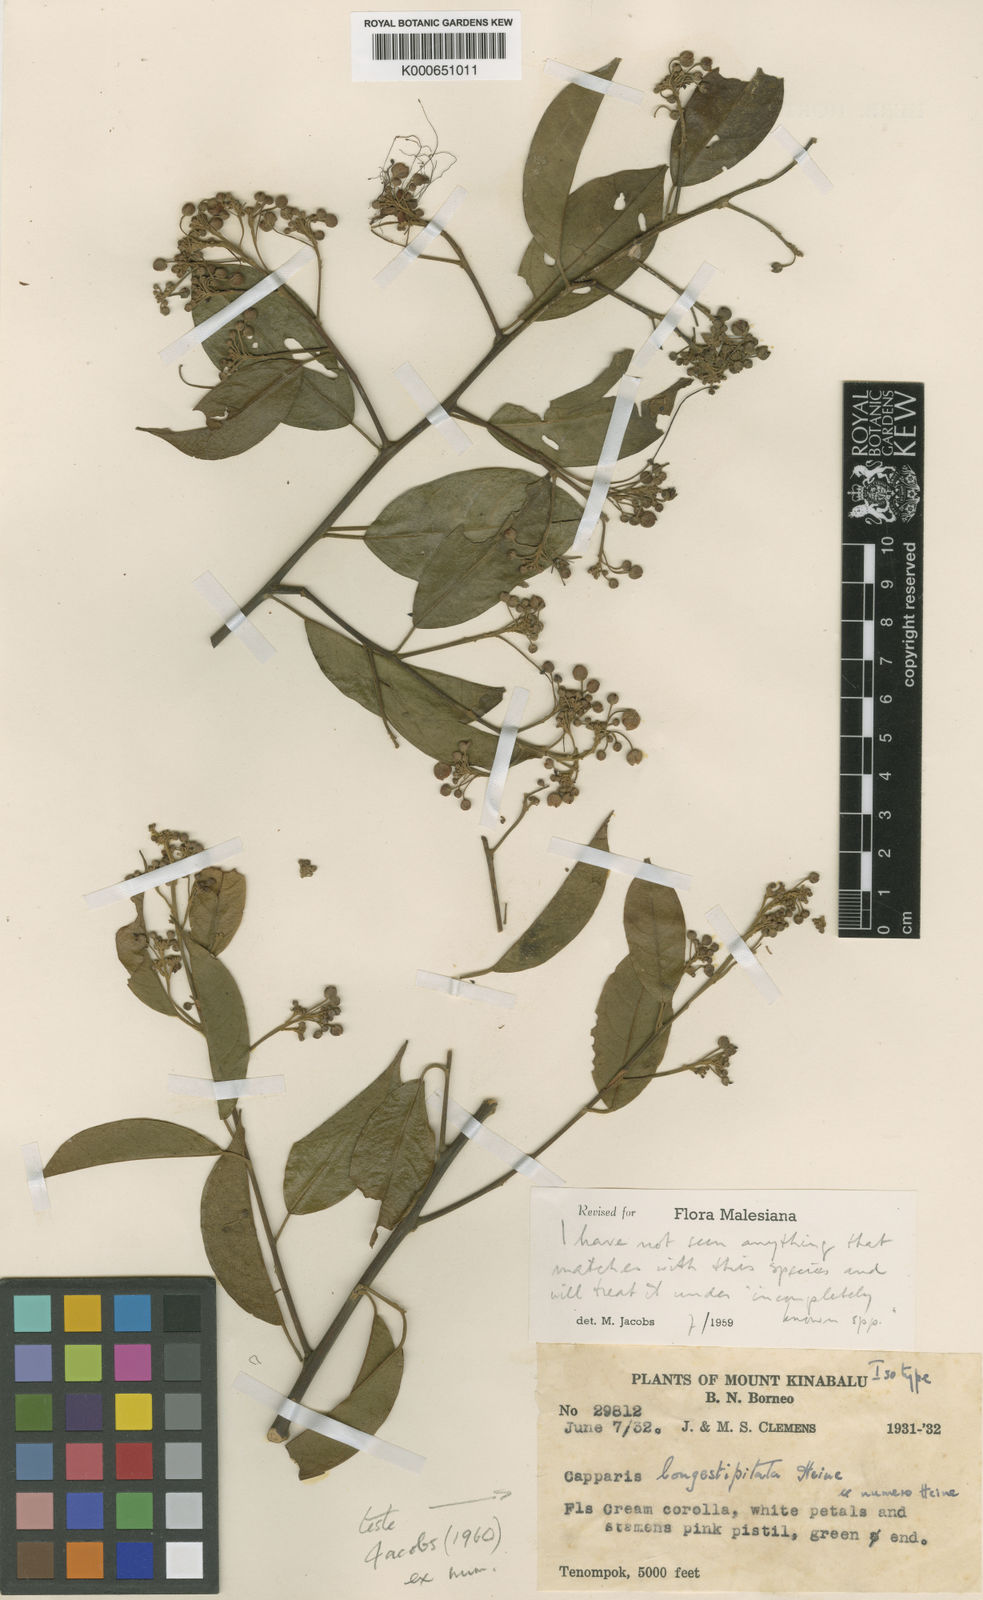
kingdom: Plantae
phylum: Tracheophyta
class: Magnoliopsida
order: Brassicales
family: Capparaceae
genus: Capparis
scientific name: Capparis longestipitata
